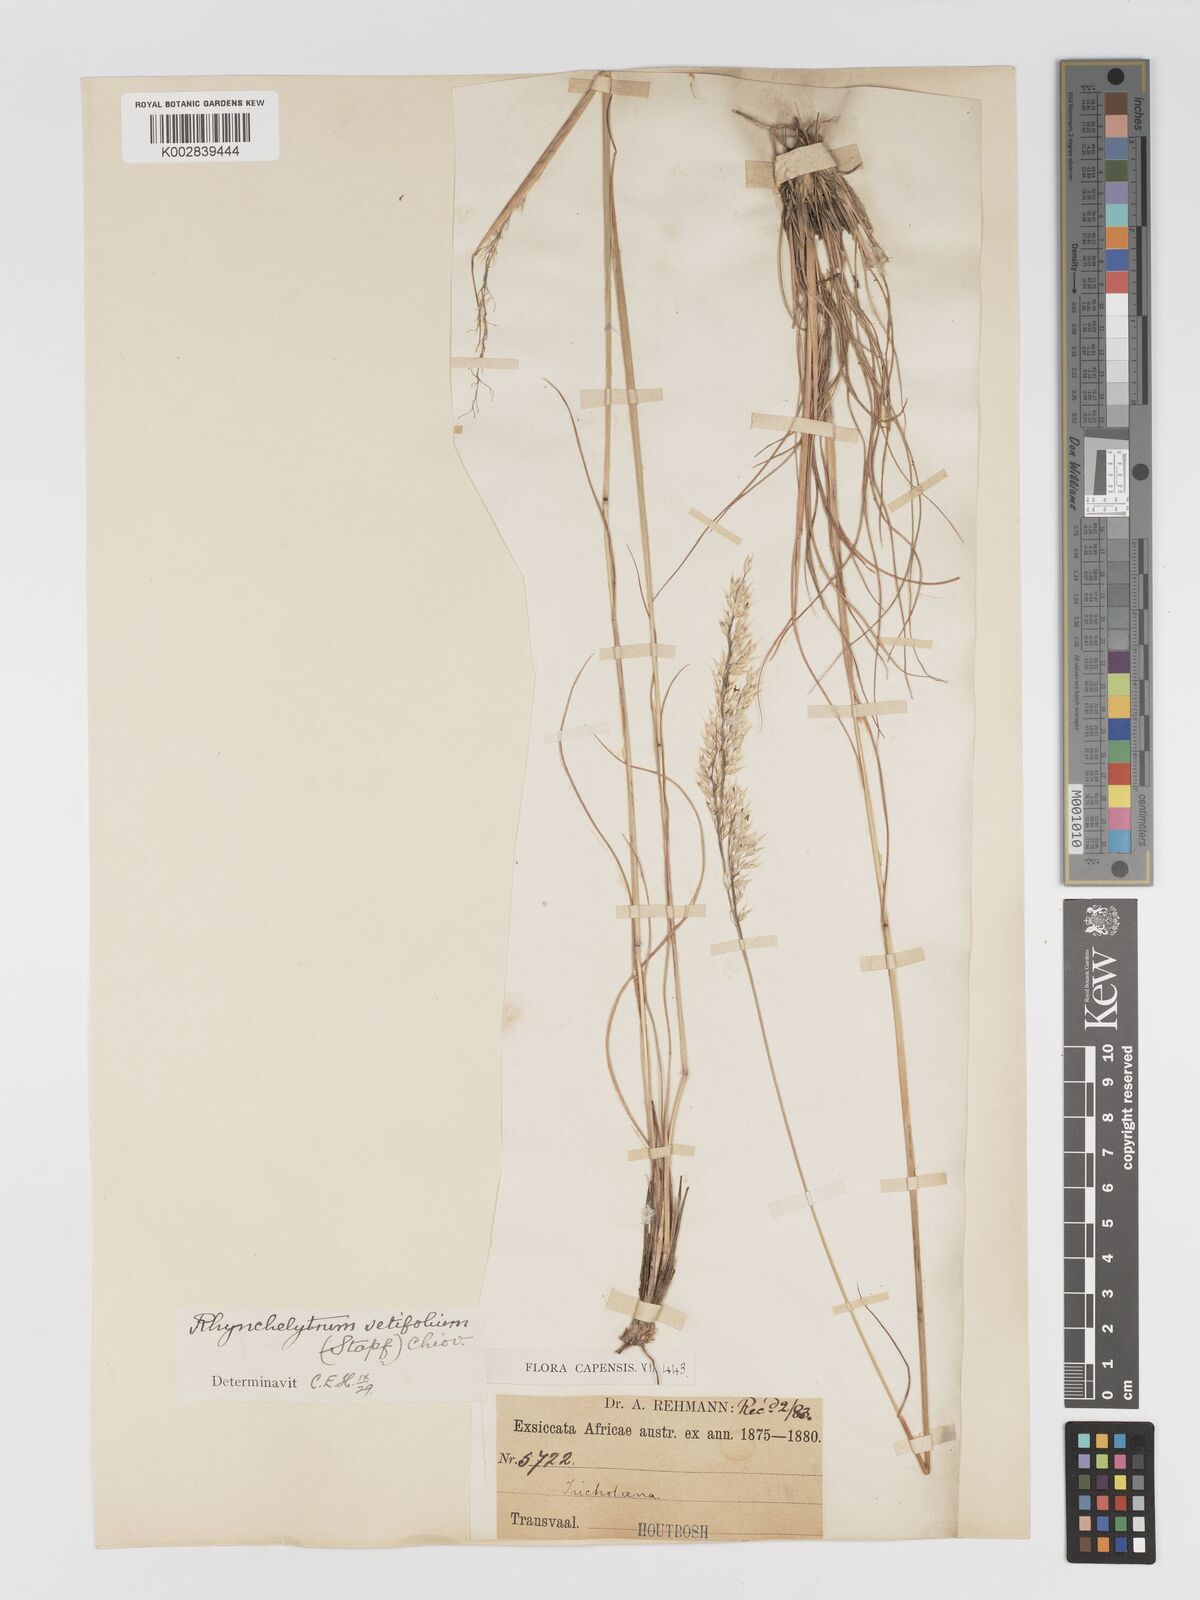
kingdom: Plantae
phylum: Tracheophyta
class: Liliopsida
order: Poales
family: Poaceae
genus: Melinis
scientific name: Melinis nerviglumis
